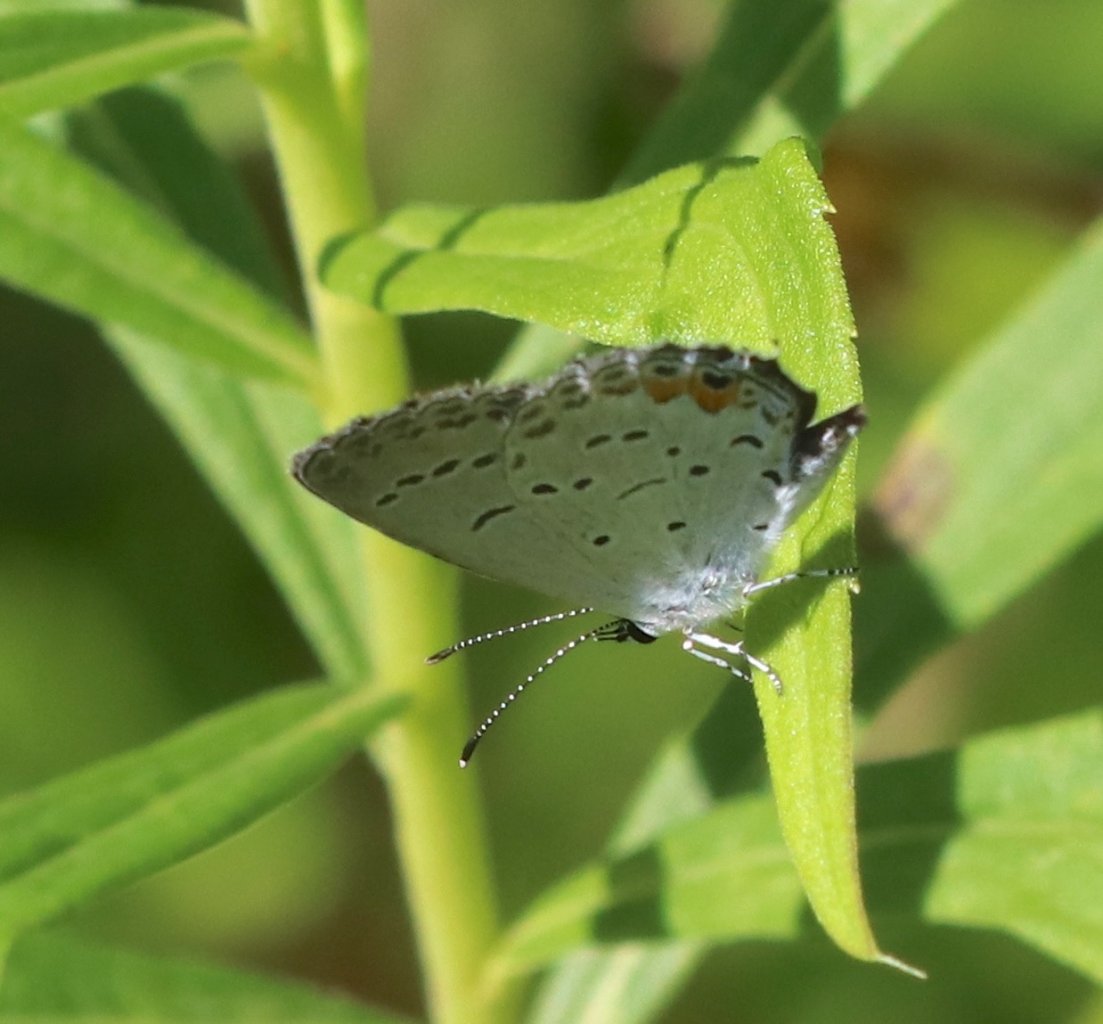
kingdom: Animalia
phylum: Arthropoda
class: Insecta
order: Lepidoptera
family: Lycaenidae
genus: Elkalyce
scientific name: Elkalyce comyntas
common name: Eastern Tailed-Blue
